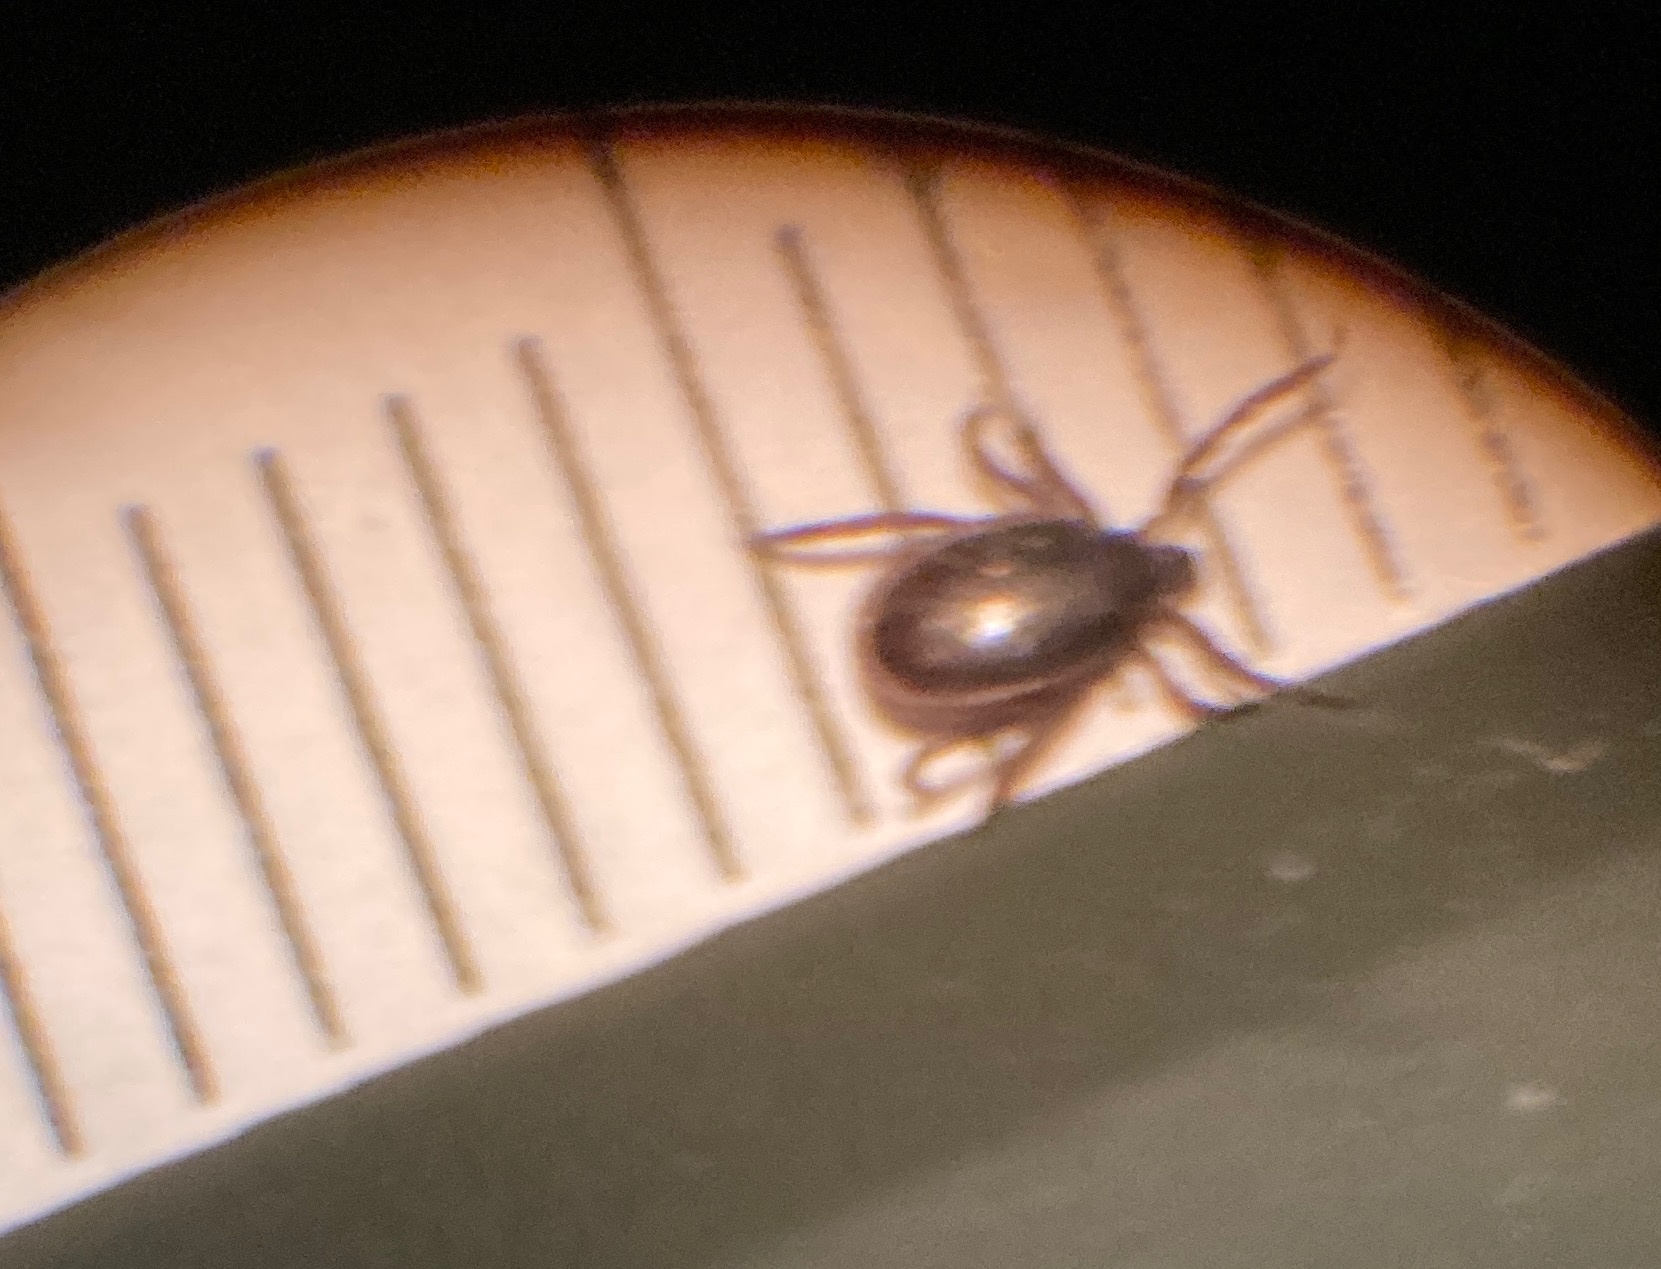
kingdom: Animalia
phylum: Arthropoda
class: Arachnida
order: Ixodida
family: Ixodidae
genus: Ixodes
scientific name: Ixodes ricinus
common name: Skovflåt
